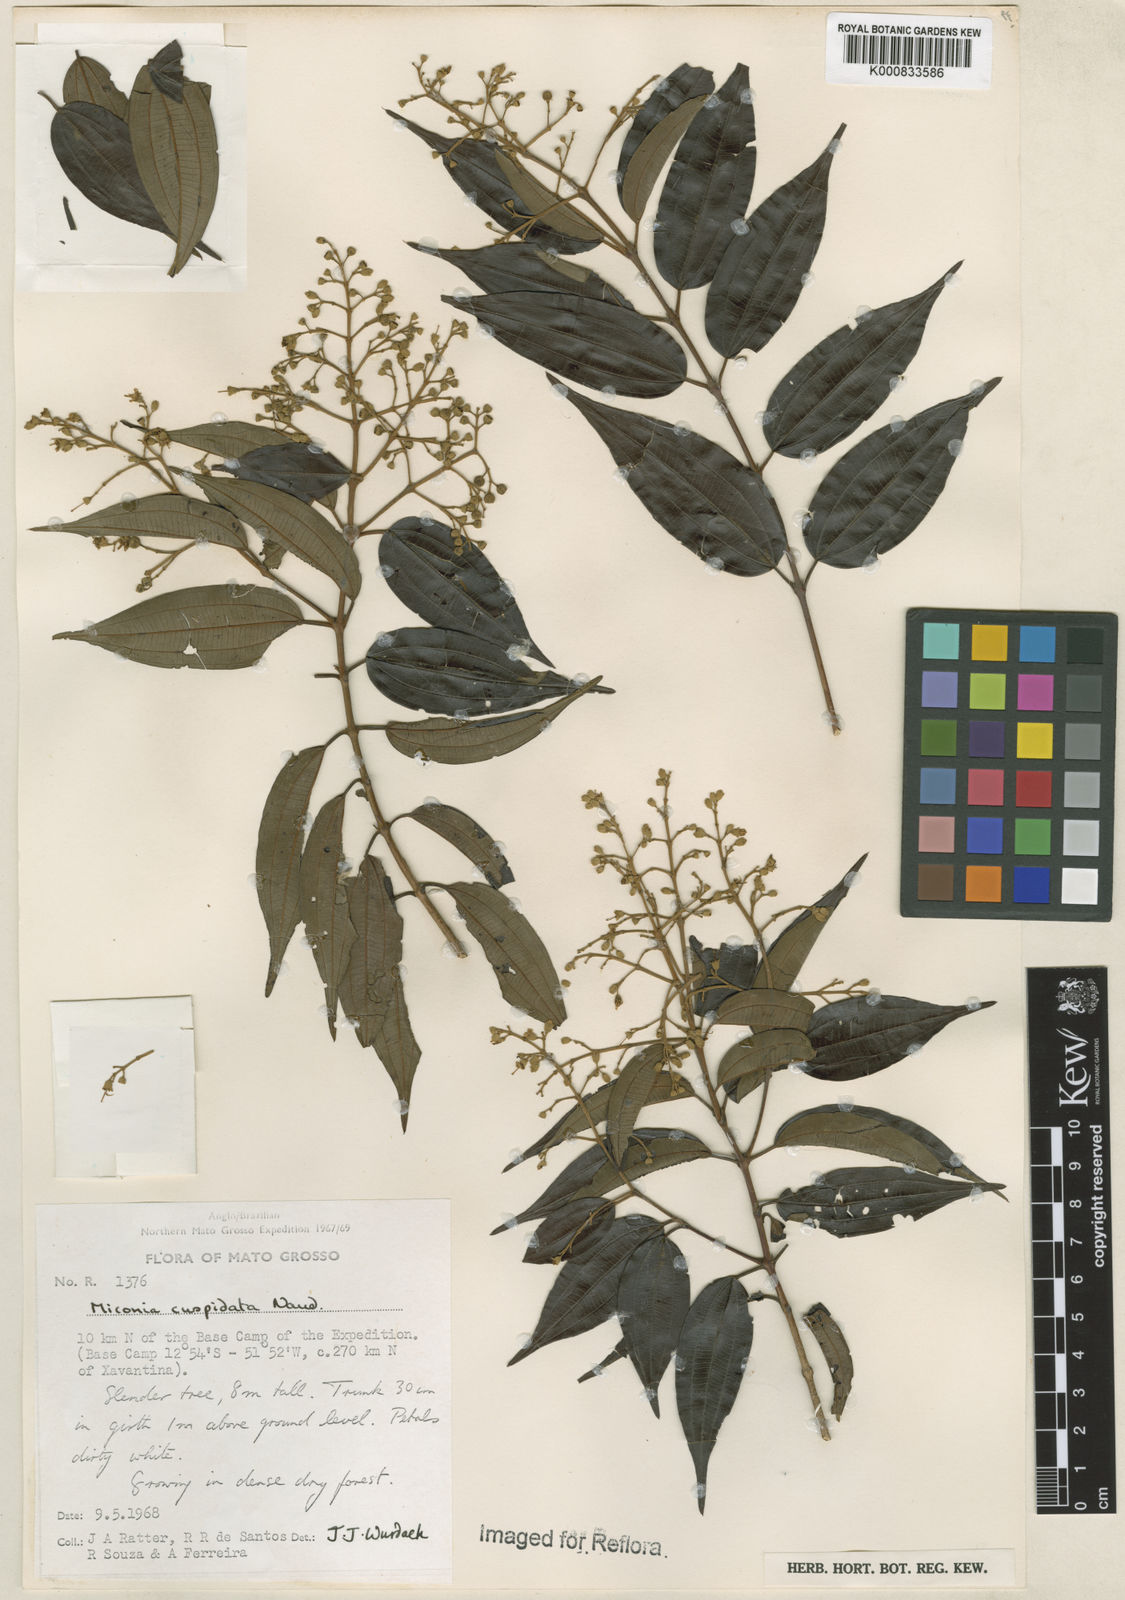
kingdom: Plantae
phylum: Tracheophyta
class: Magnoliopsida
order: Myrtales
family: Melastomataceae
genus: Miconia
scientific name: Miconia cuspidata
